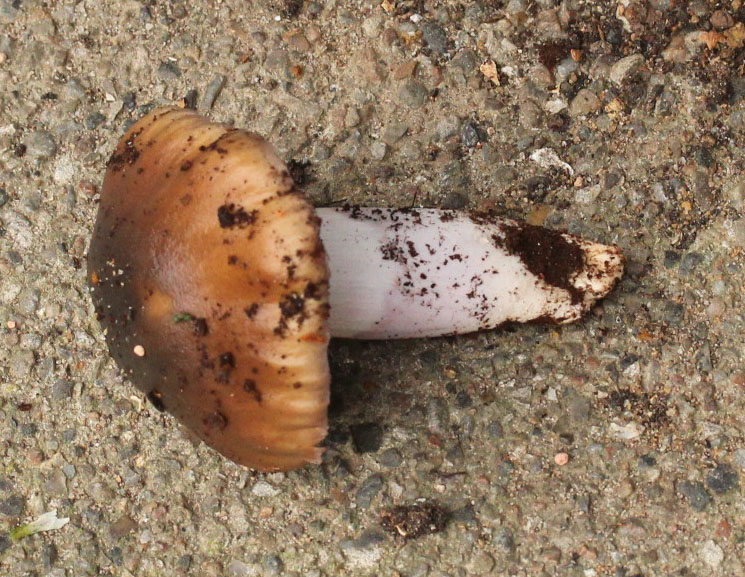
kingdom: Fungi
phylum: Basidiomycota
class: Agaricomycetes
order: Agaricales
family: Cortinariaceae
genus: Cortinarius
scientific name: Cortinarius elatior
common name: høj slørhat
